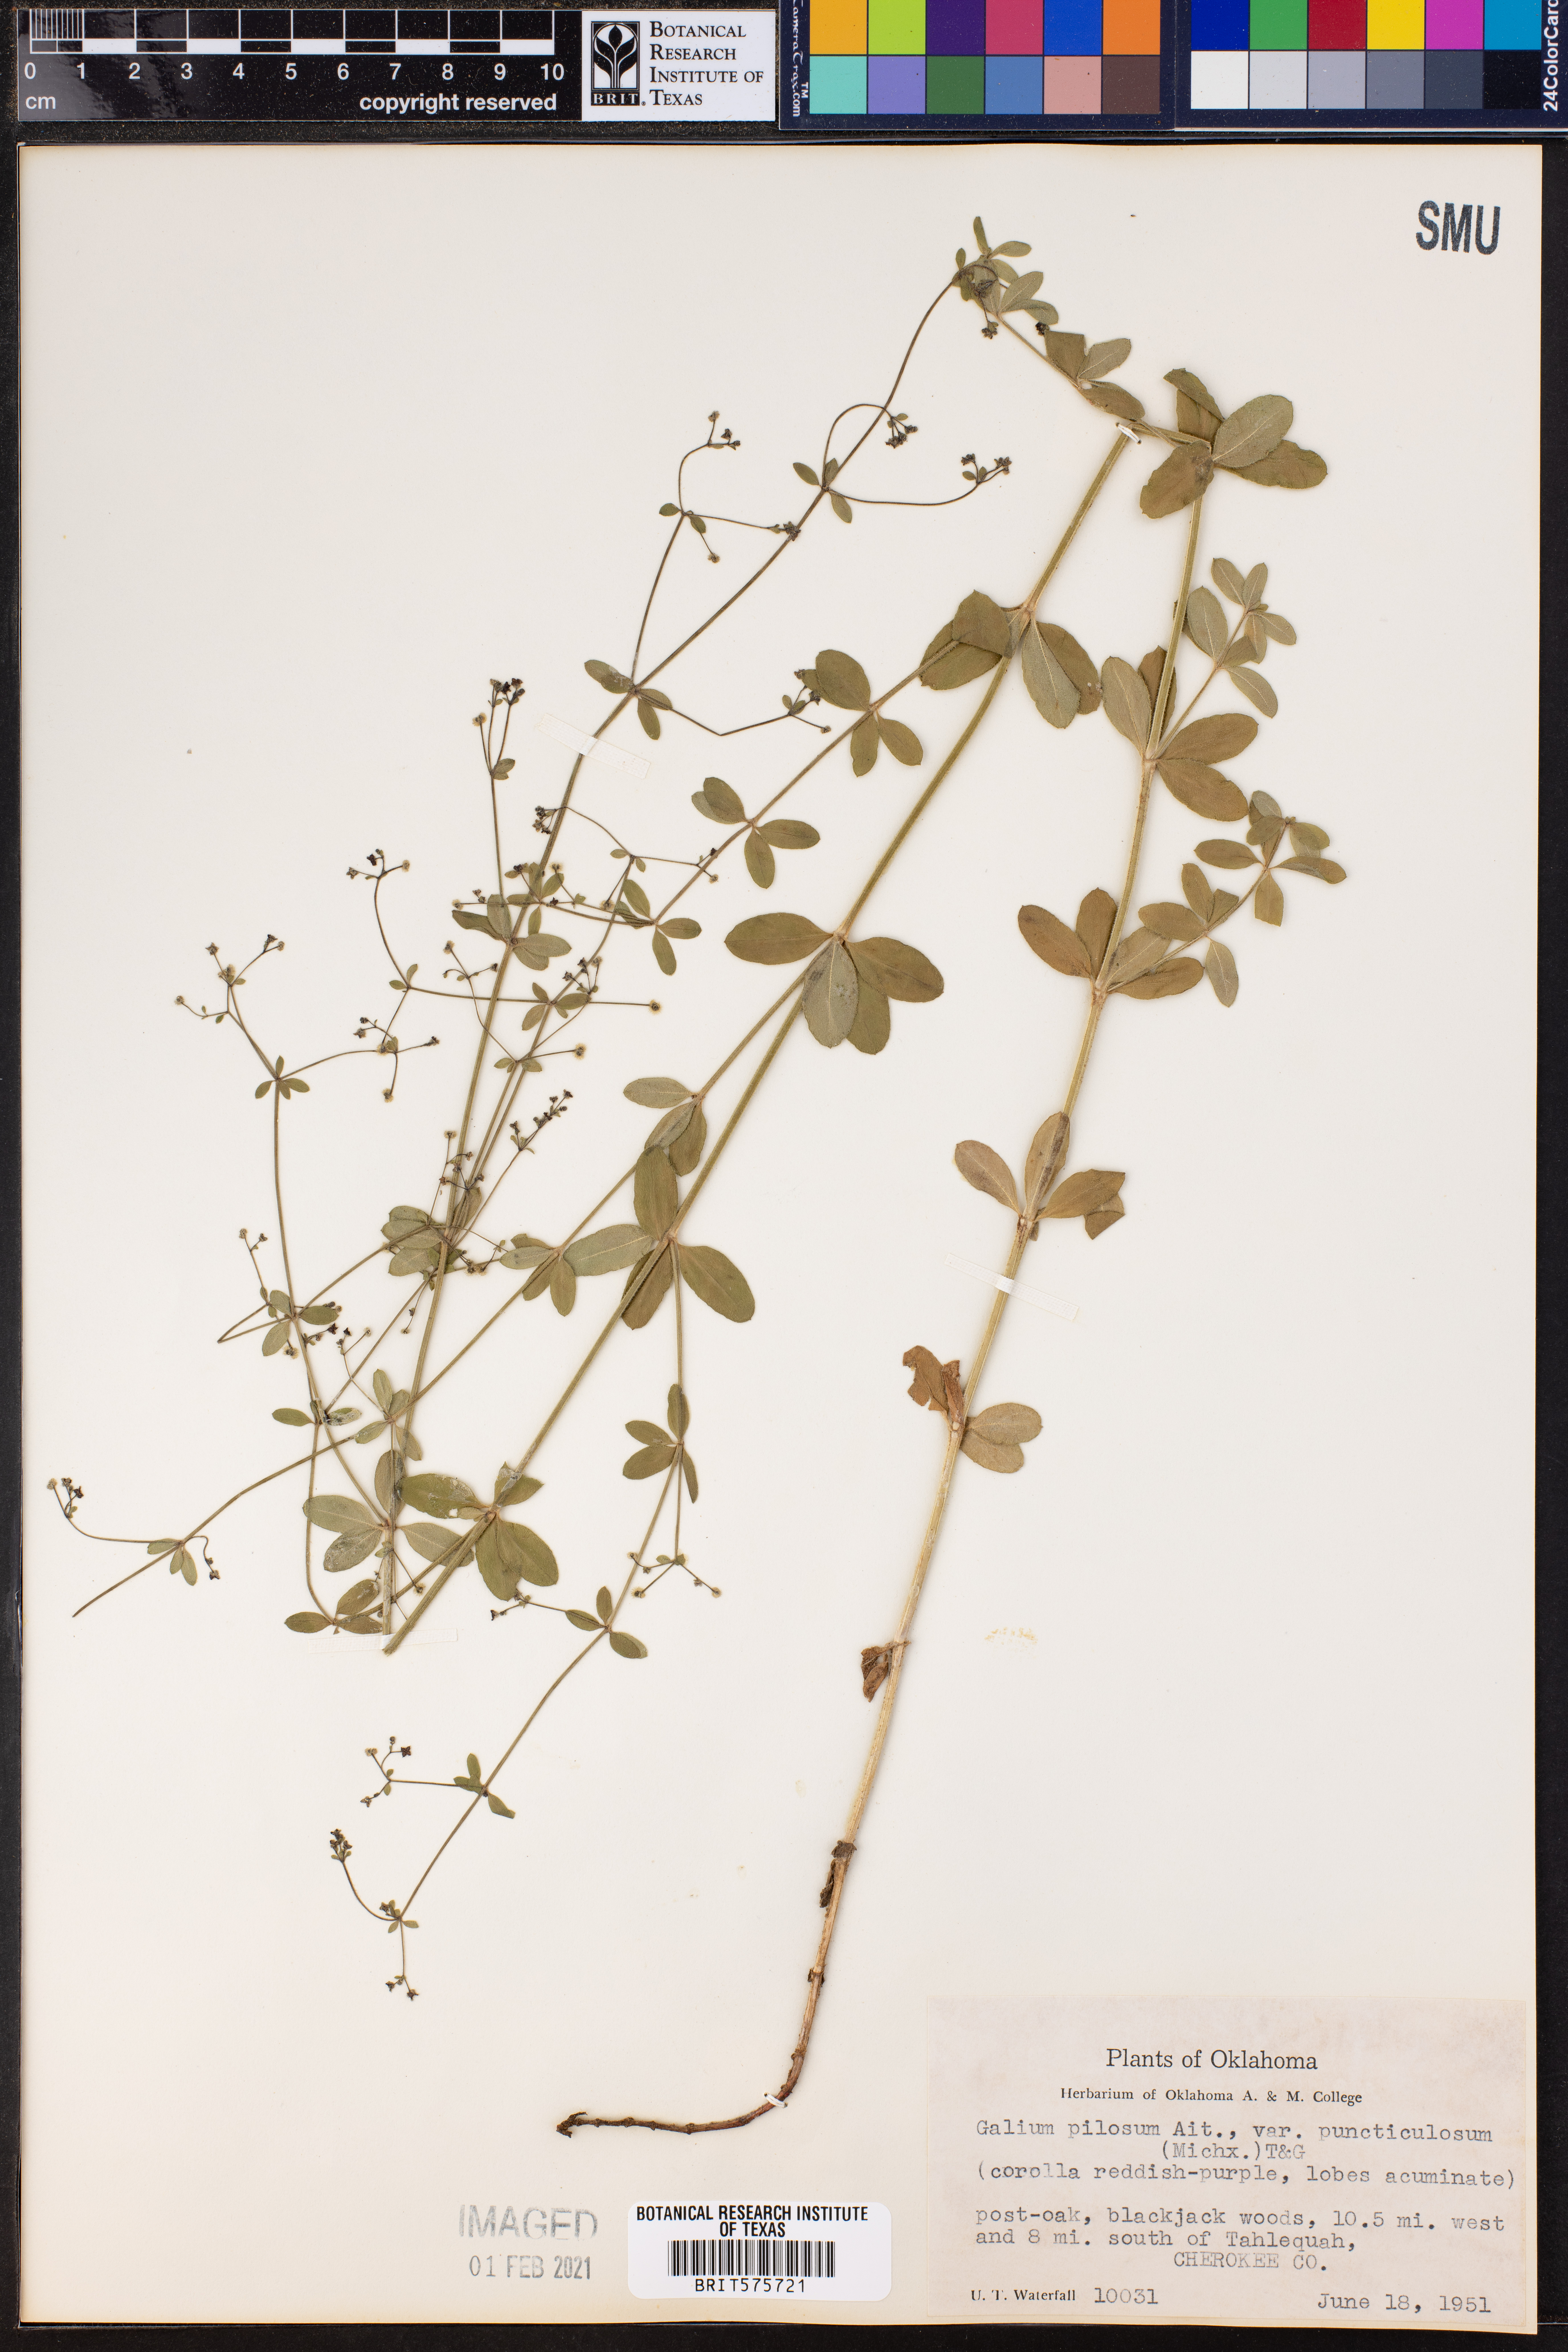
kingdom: Plantae
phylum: Tracheophyta
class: Magnoliopsida
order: Gentianales
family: Rubiaceae
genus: Galium
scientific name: Galium pilosum
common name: Hairy bedstraw
